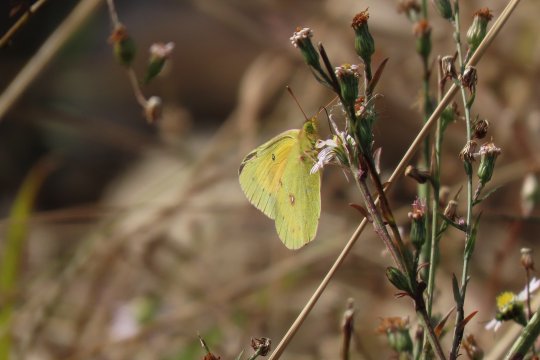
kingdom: Animalia
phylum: Arthropoda
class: Insecta
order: Lepidoptera
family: Pieridae
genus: Colias
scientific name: Colias eurytheme
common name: Orange Sulphur
